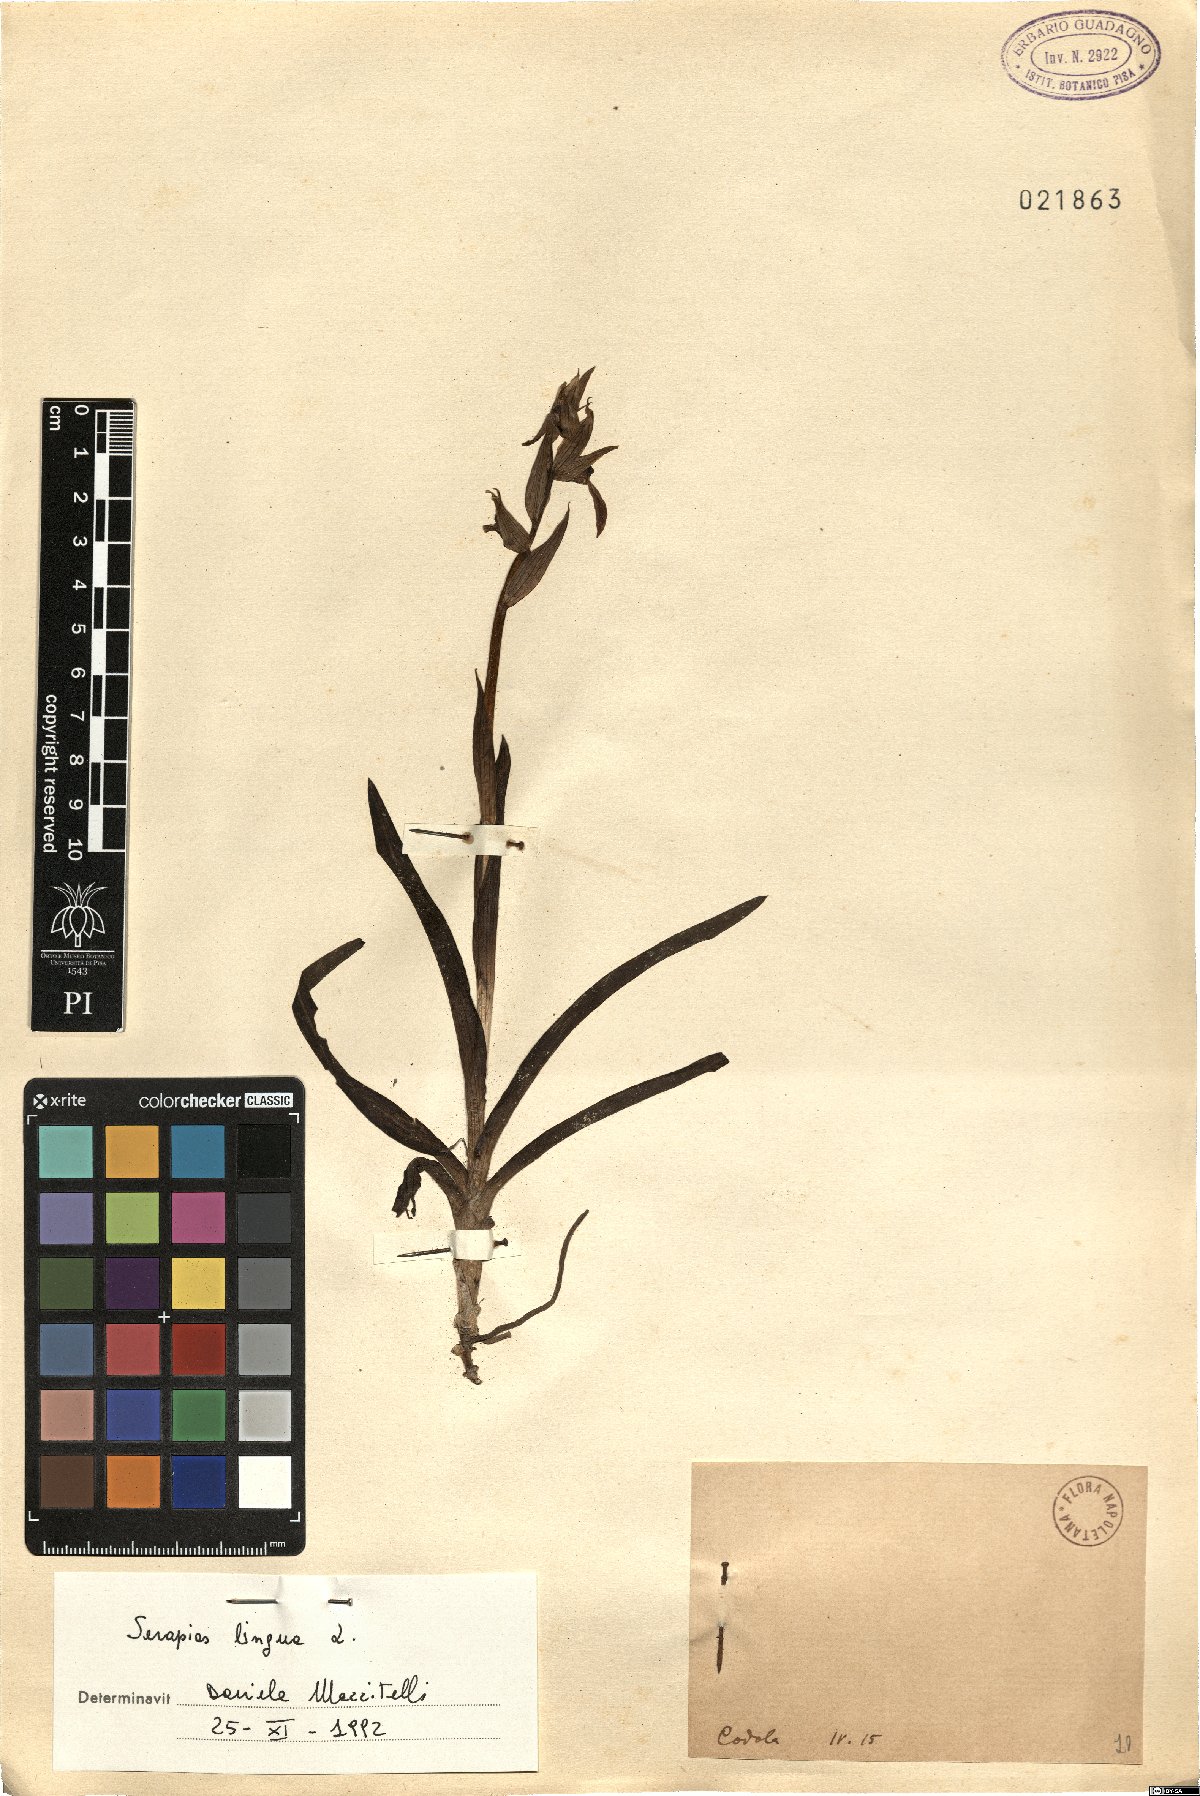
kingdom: Plantae
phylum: Tracheophyta
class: Liliopsida
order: Asparagales
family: Orchidaceae
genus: Serapias
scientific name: Serapias lingua
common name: Tongue-orchid
